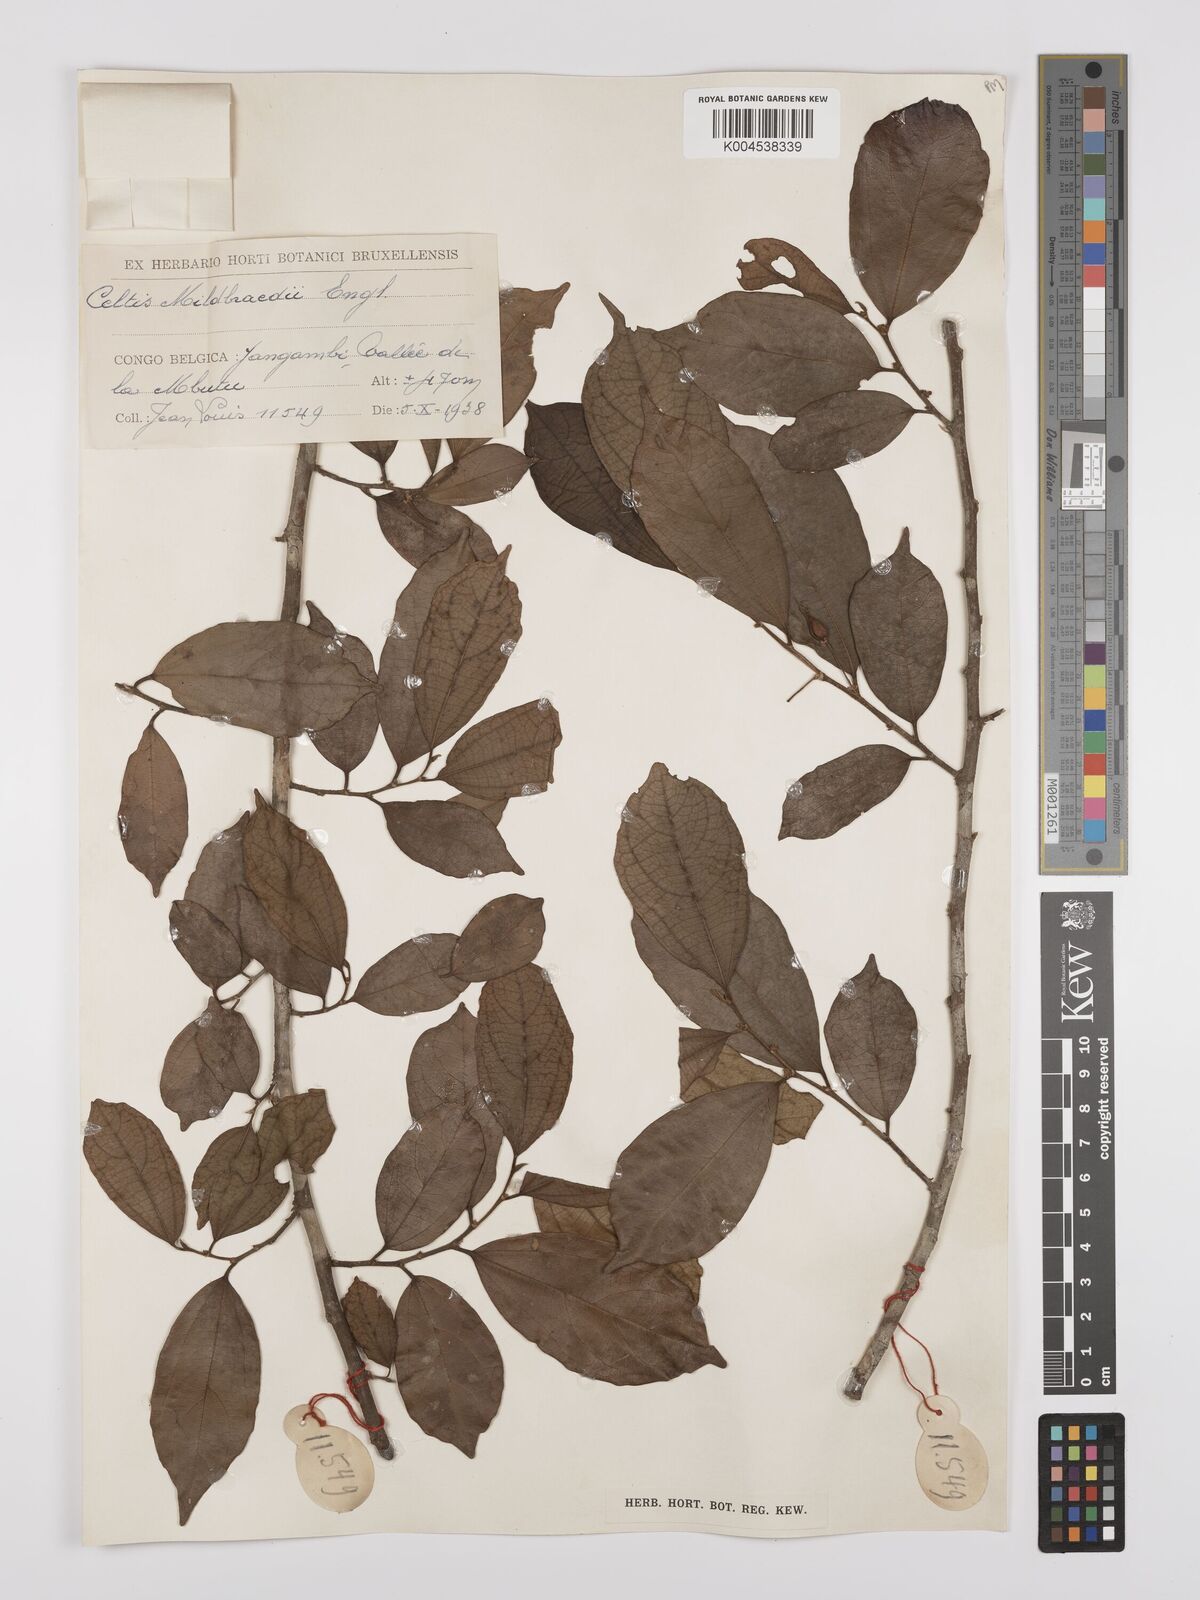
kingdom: Plantae
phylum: Tracheophyta
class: Magnoliopsida
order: Rosales
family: Cannabaceae
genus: Celtis
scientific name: Celtis mildbraedii
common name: Red-fruited stinkwood
